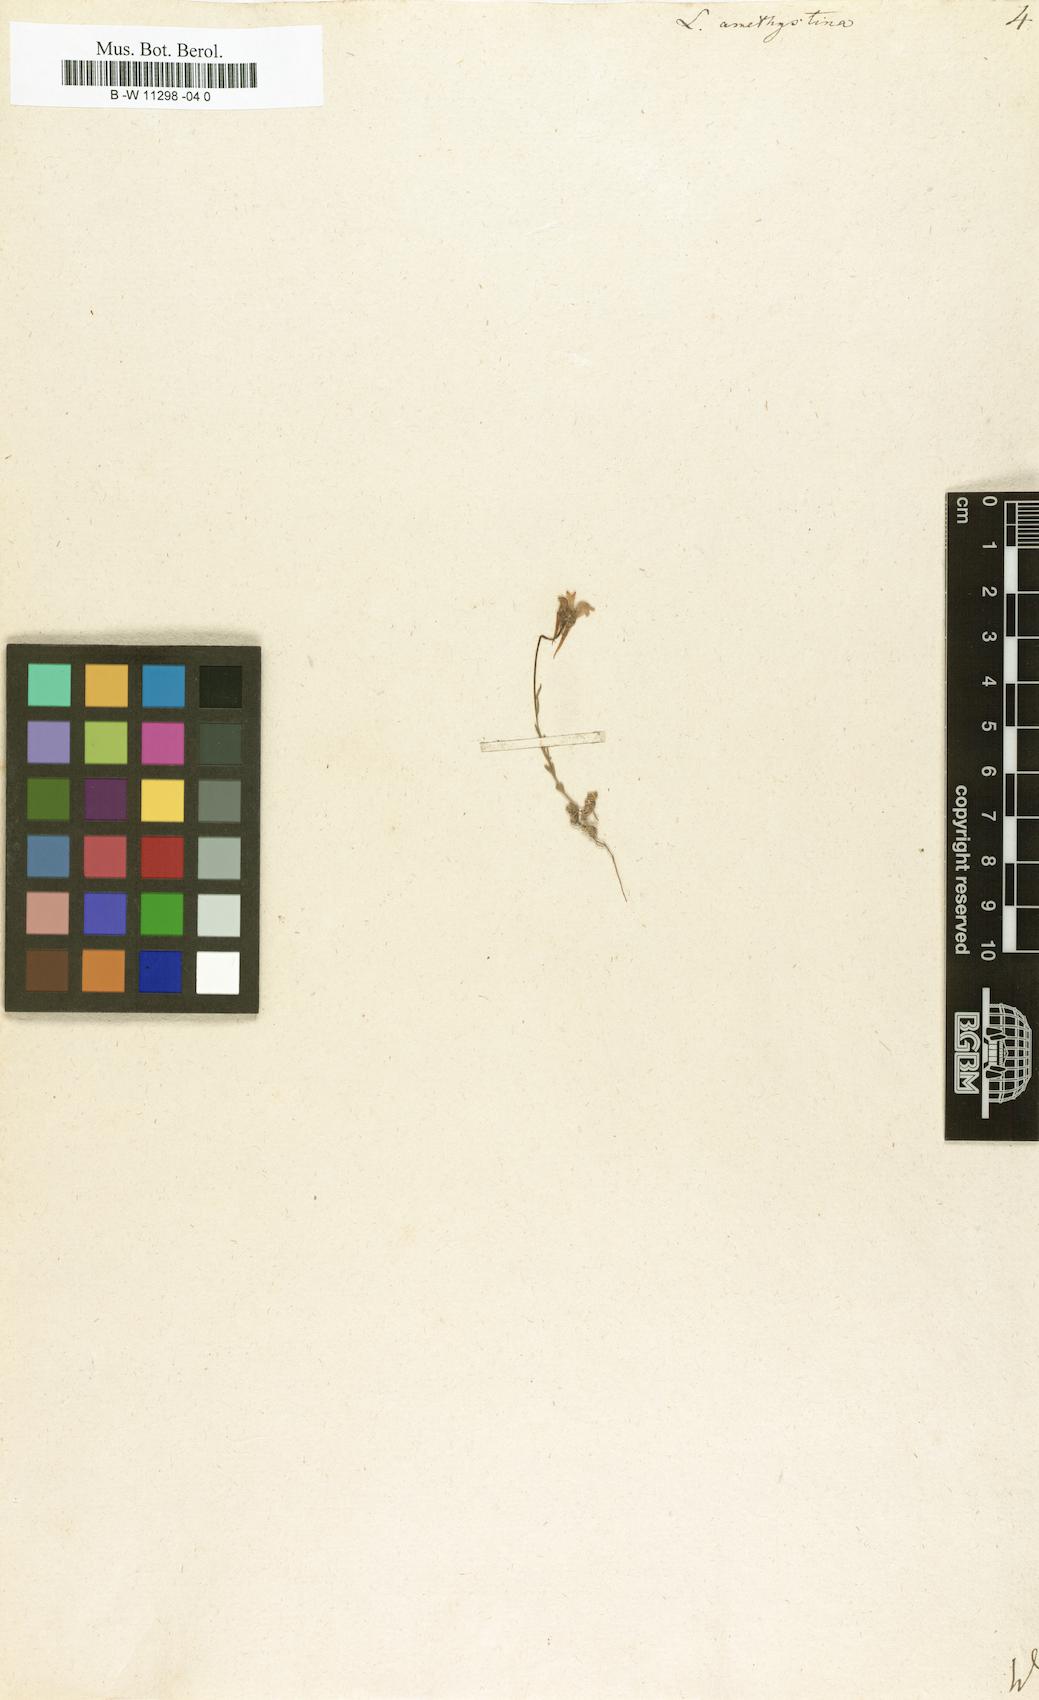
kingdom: Plantae
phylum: Tracheophyta
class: Magnoliopsida
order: Lamiales
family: Plantaginaceae
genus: Linaria
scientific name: Linaria incarnata
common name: Annual toadflax
